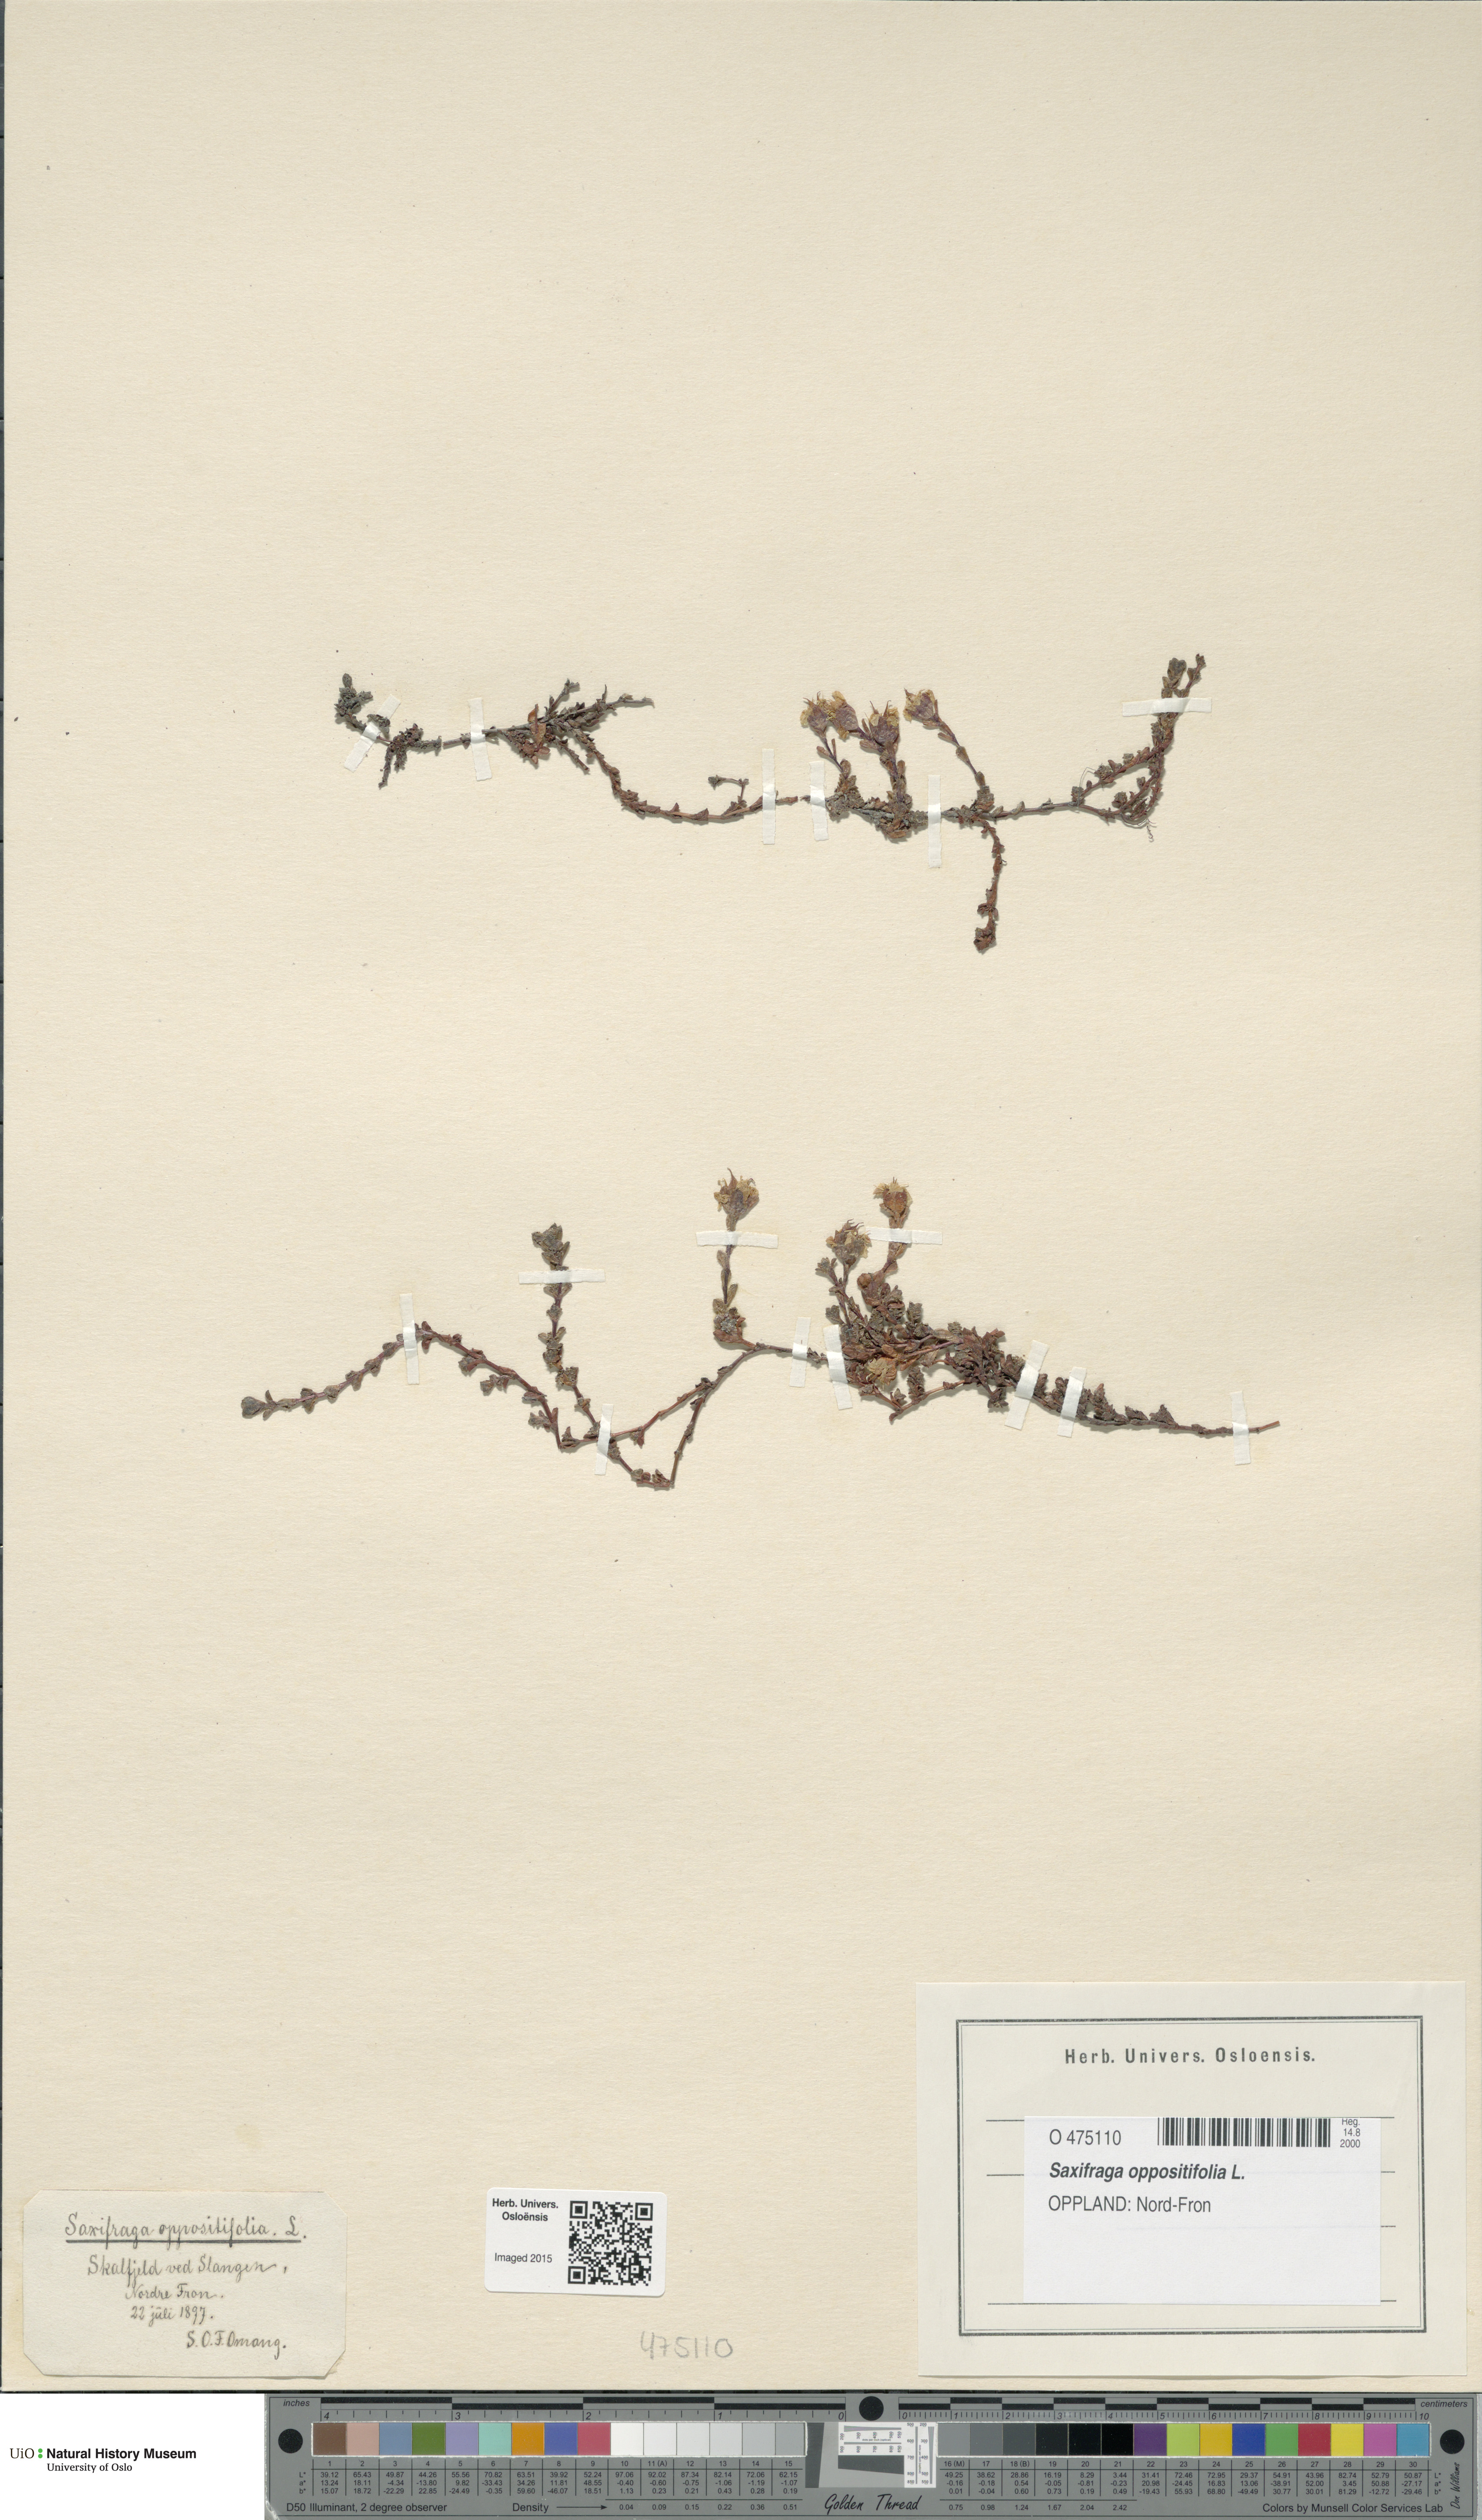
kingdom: Plantae
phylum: Tracheophyta
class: Magnoliopsida
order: Saxifragales
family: Saxifragaceae
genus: Saxifraga
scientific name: Saxifraga oppositifolia
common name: Purple saxifrage
